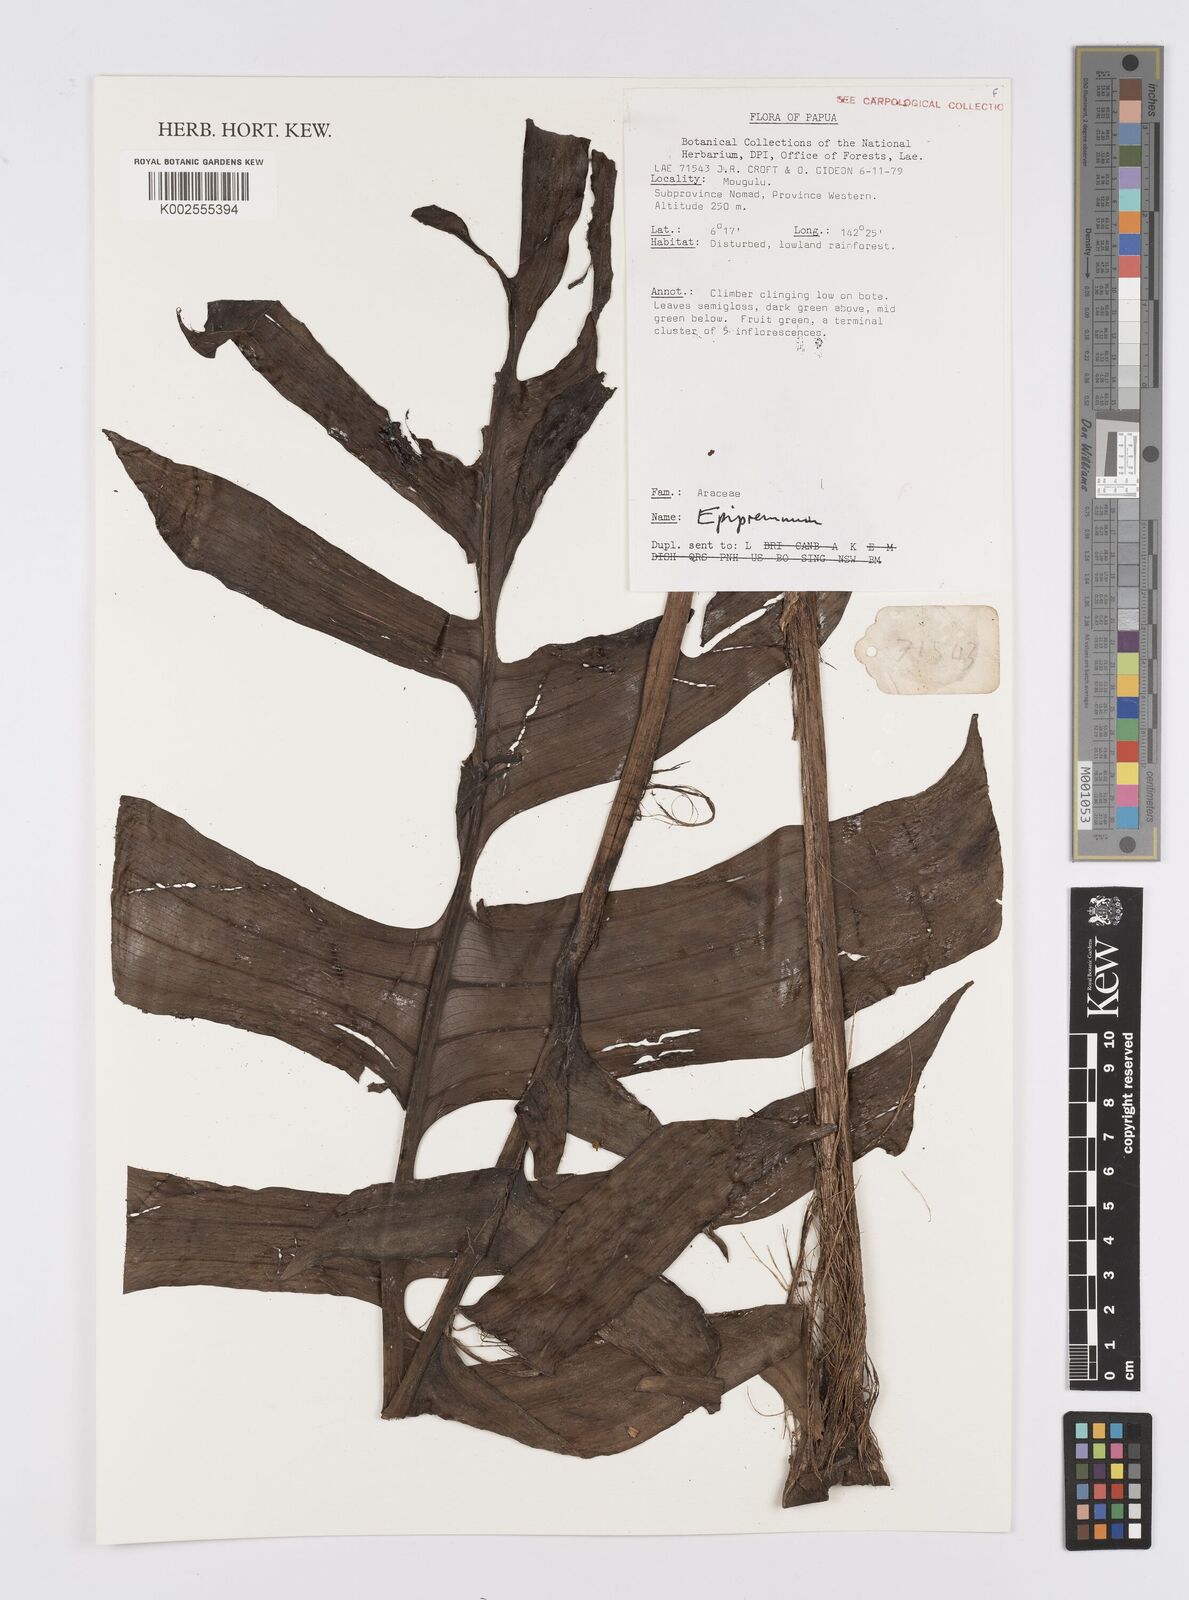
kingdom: Plantae
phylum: Tracheophyta
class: Liliopsida
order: Alismatales
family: Araceae
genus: Epipremnum
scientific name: Epipremnum
